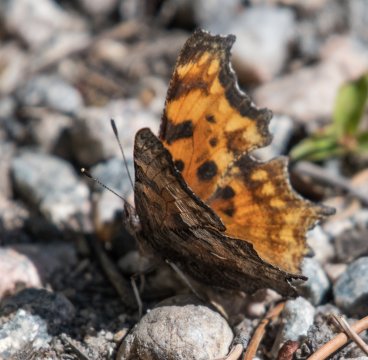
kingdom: Animalia
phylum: Arthropoda
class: Insecta
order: Lepidoptera
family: Nymphalidae
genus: Polygonia
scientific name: Polygonia satyrus
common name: Satyr Comma
